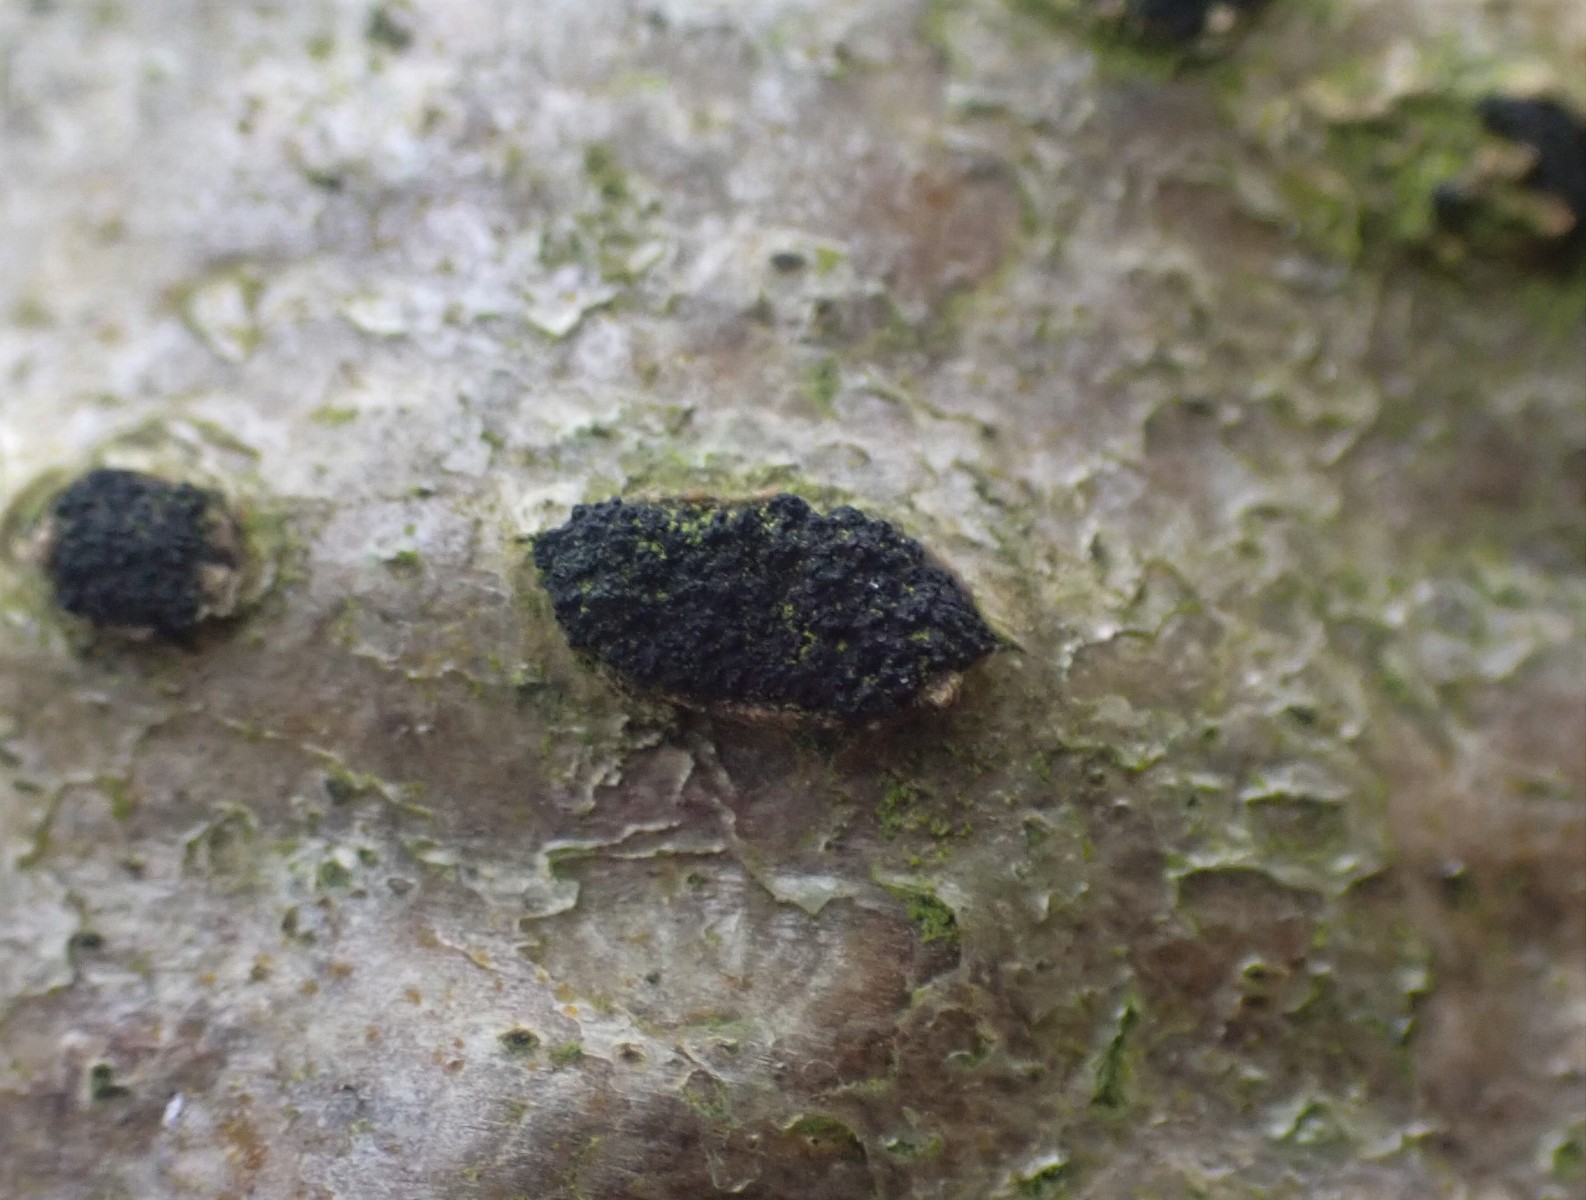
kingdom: Fungi
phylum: Ascomycota
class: Sordariomycetes
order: Xylariales
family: Diatrypaceae
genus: Eutypella
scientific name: Eutypella sorbi
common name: rønne-kulskorpe
